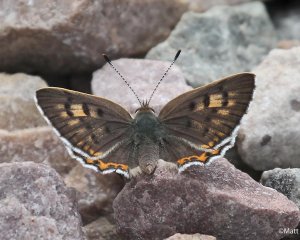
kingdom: Animalia
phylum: Arthropoda
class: Insecta
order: Lepidoptera
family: Lycaenidae
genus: Lycaena
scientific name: Lycaena editha
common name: Edith's Copper
